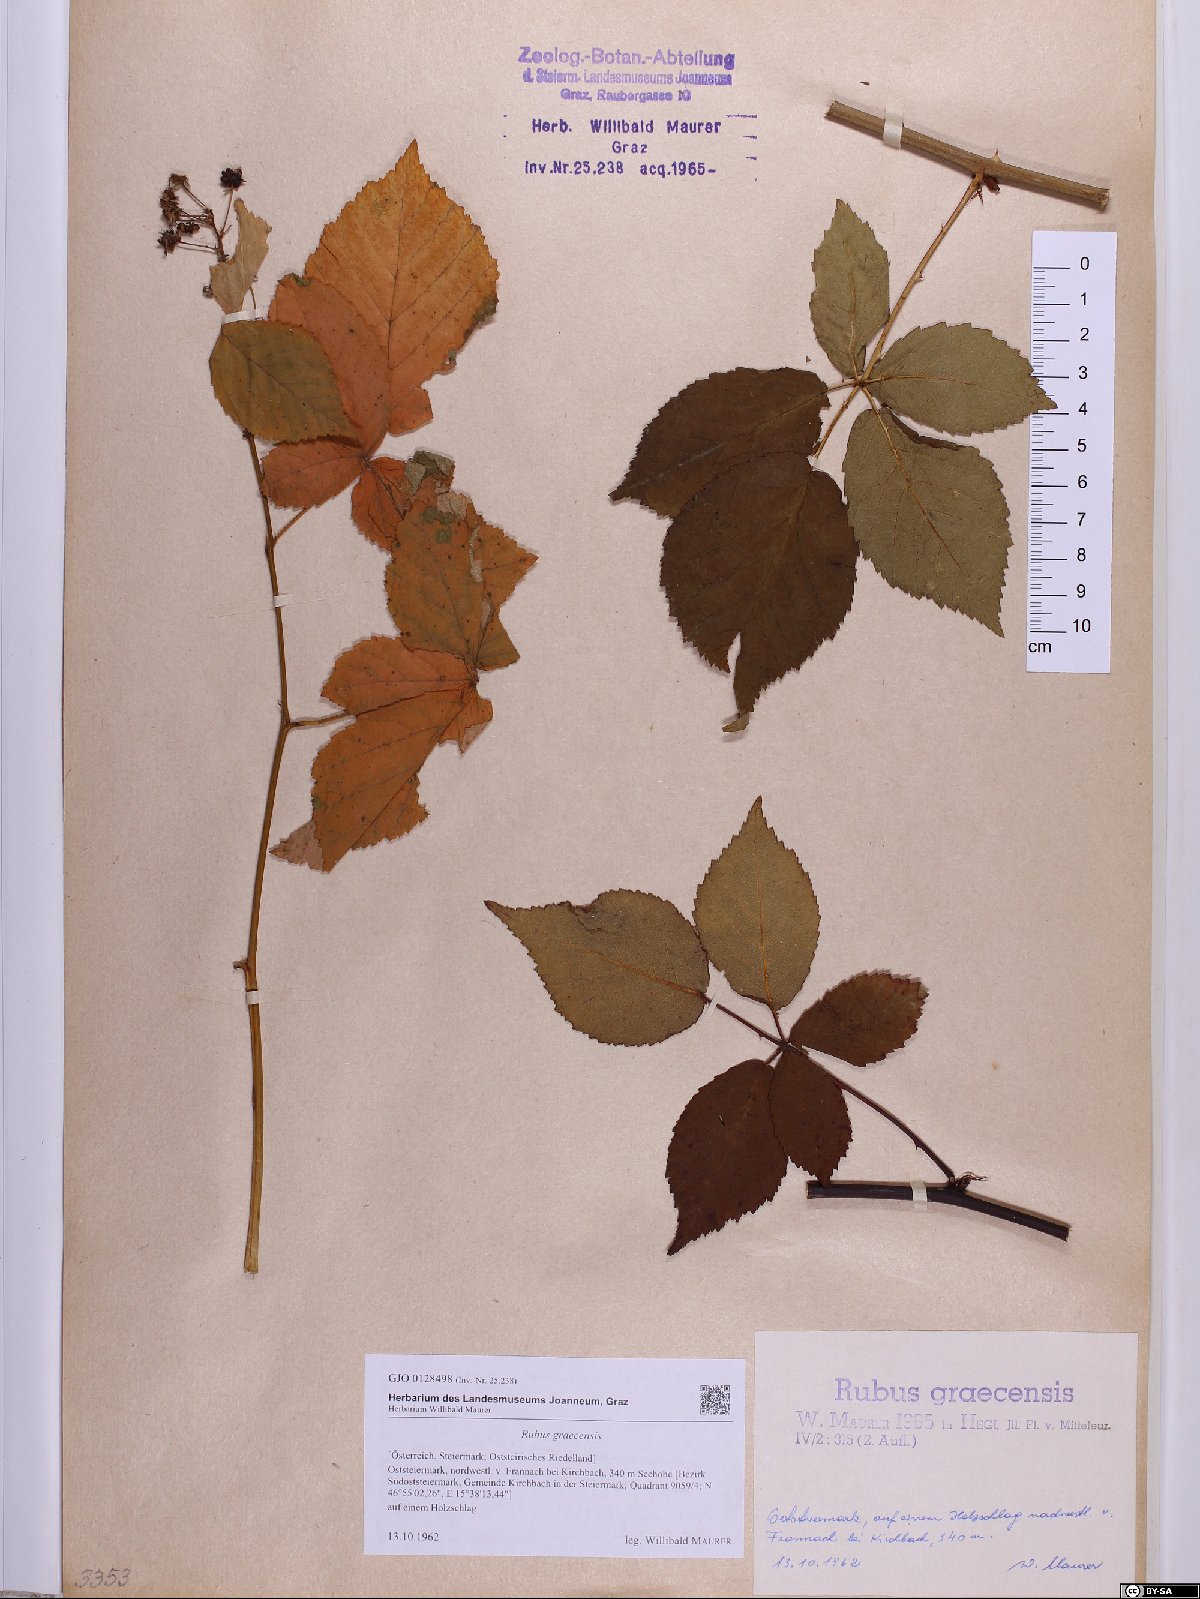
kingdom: Plantae
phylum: Tracheophyta
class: Magnoliopsida
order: Rosales
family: Rosaceae
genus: Rubus
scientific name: Rubus graecensis
